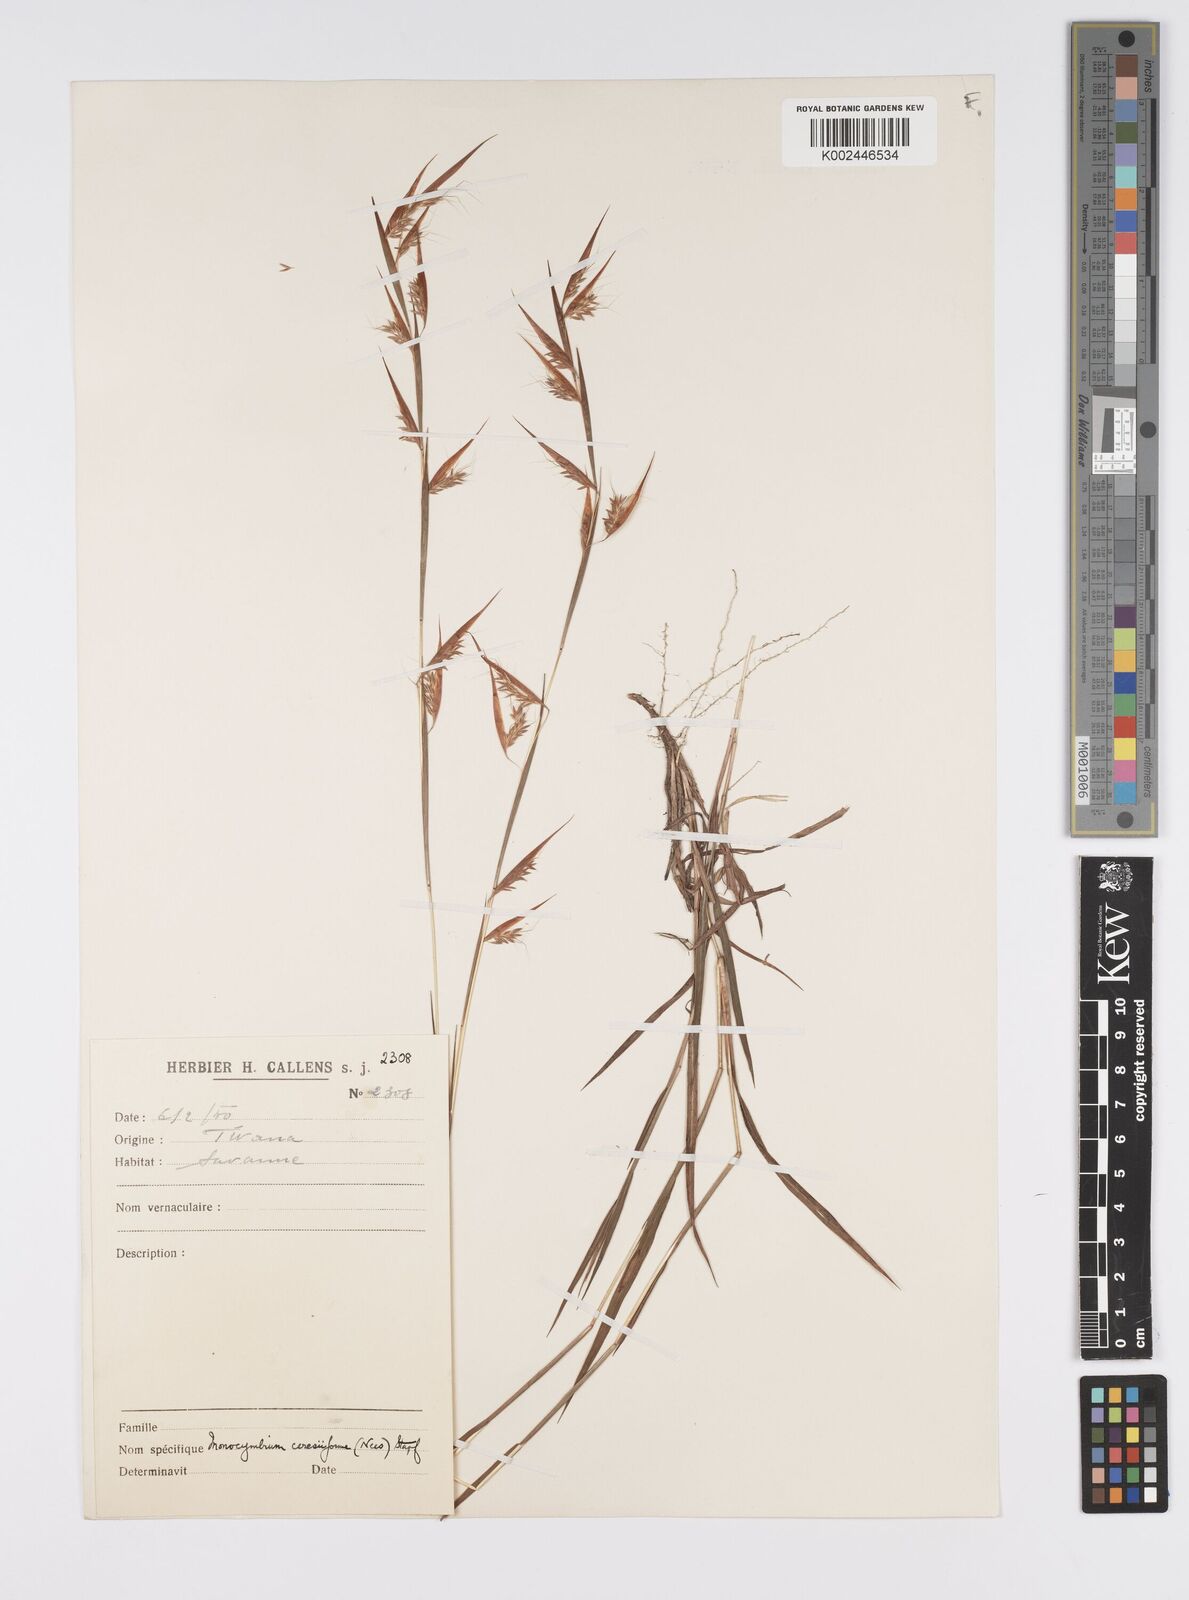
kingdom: Plantae
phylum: Tracheophyta
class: Liliopsida
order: Poales
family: Poaceae
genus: Monocymbium
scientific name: Monocymbium ceresiiforme
